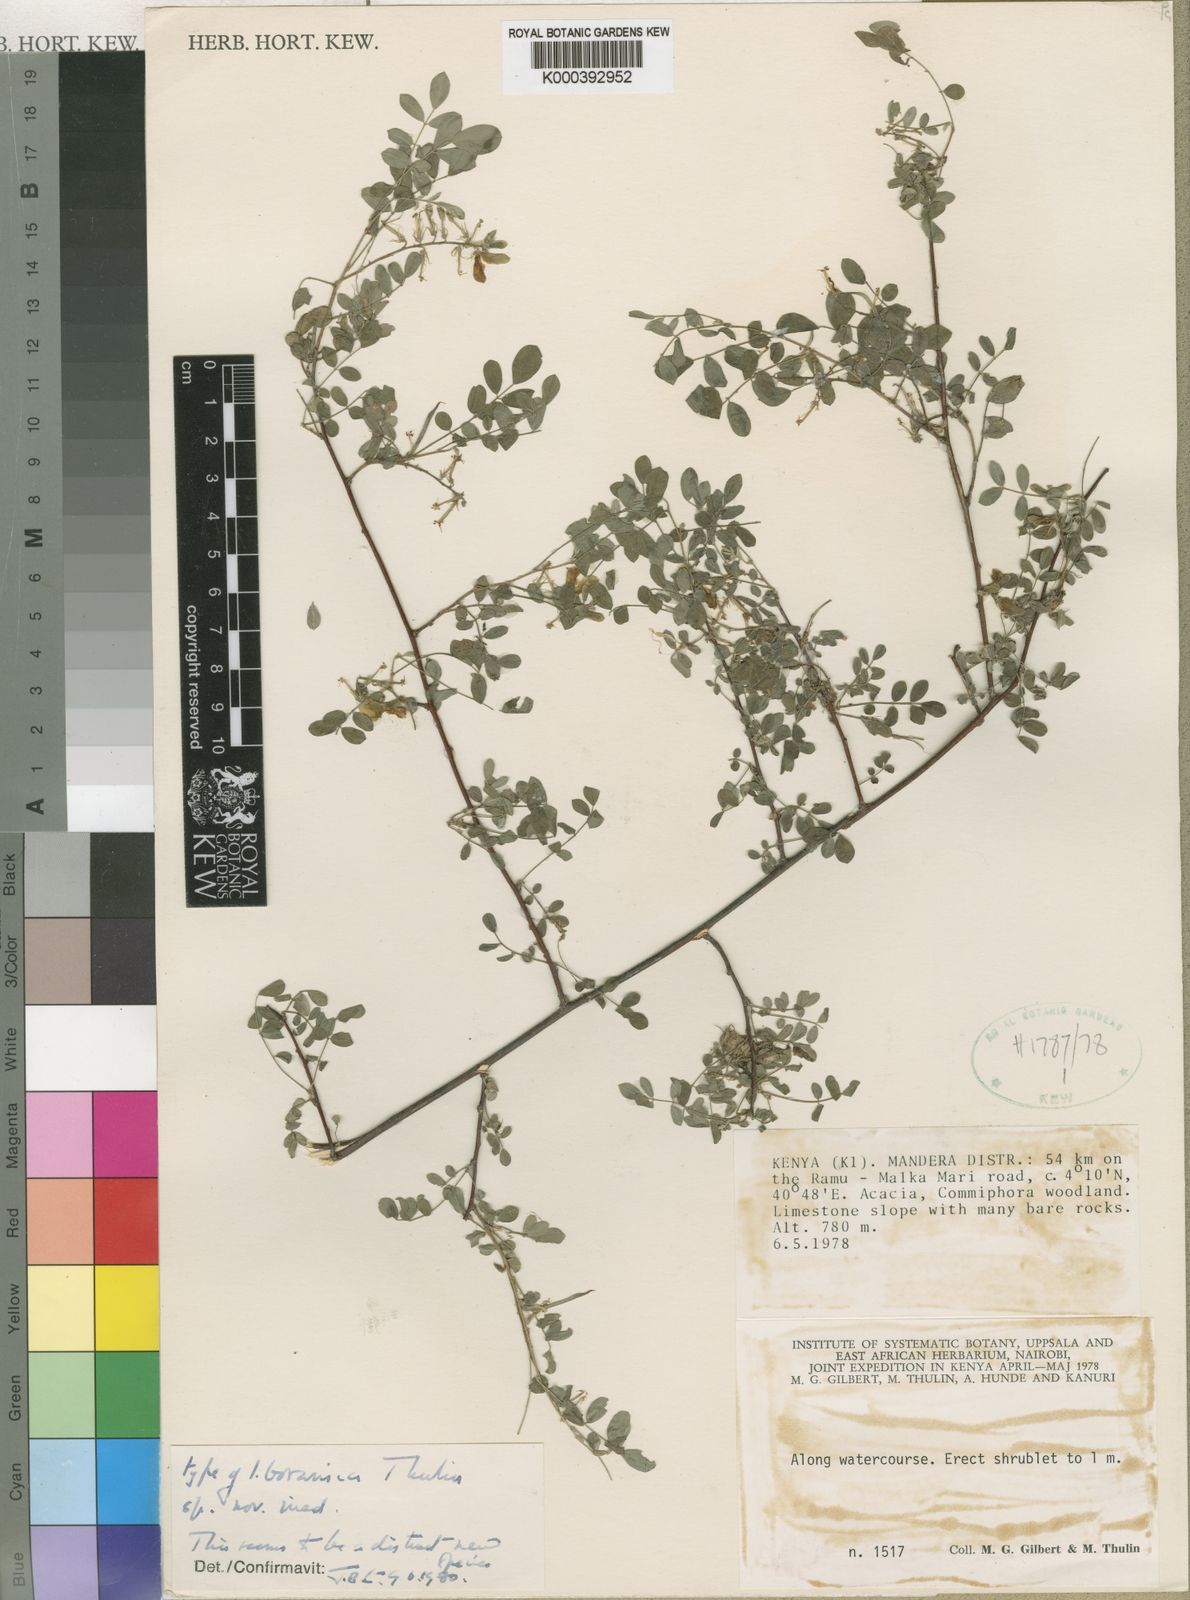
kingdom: Plantae
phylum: Tracheophyta
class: Magnoliopsida
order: Fabales
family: Fabaceae
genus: Indigofera
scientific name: Indigofera boranica
